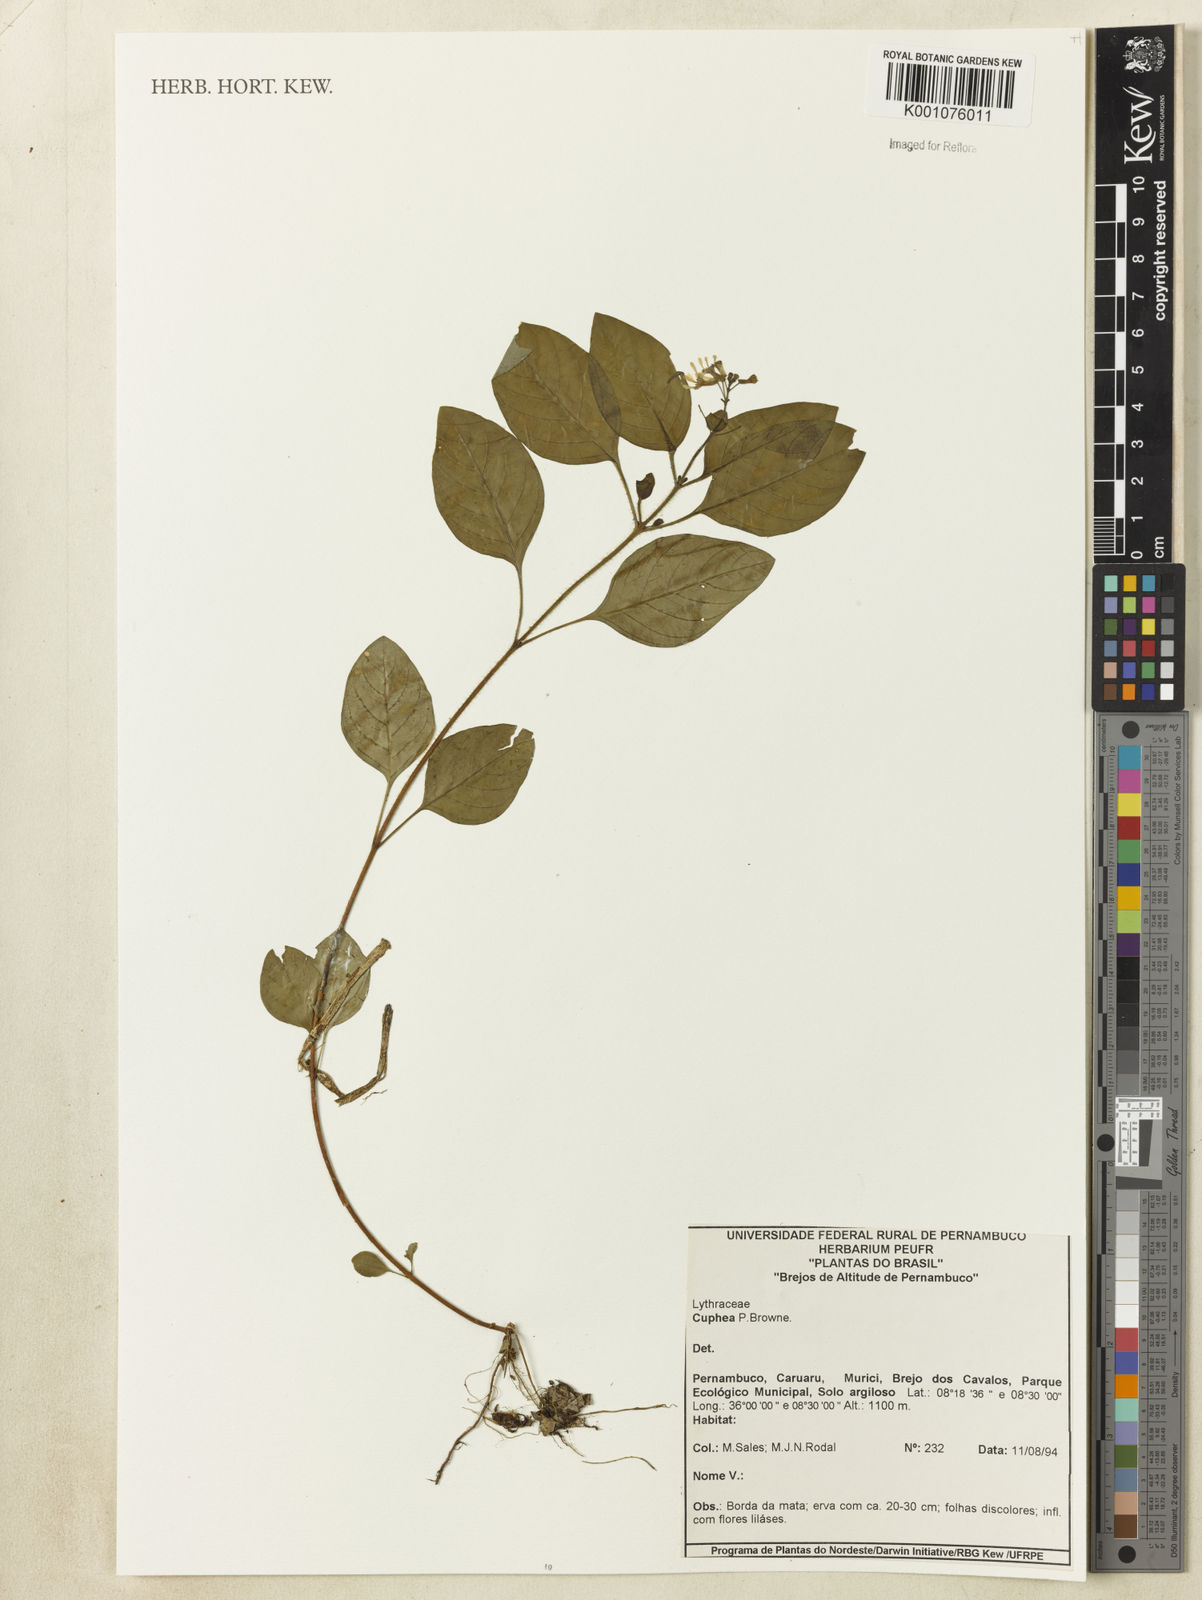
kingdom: Plantae
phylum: Tracheophyta
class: Magnoliopsida
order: Myrtales
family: Lythraceae
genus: Cuphea
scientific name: Cuphea
